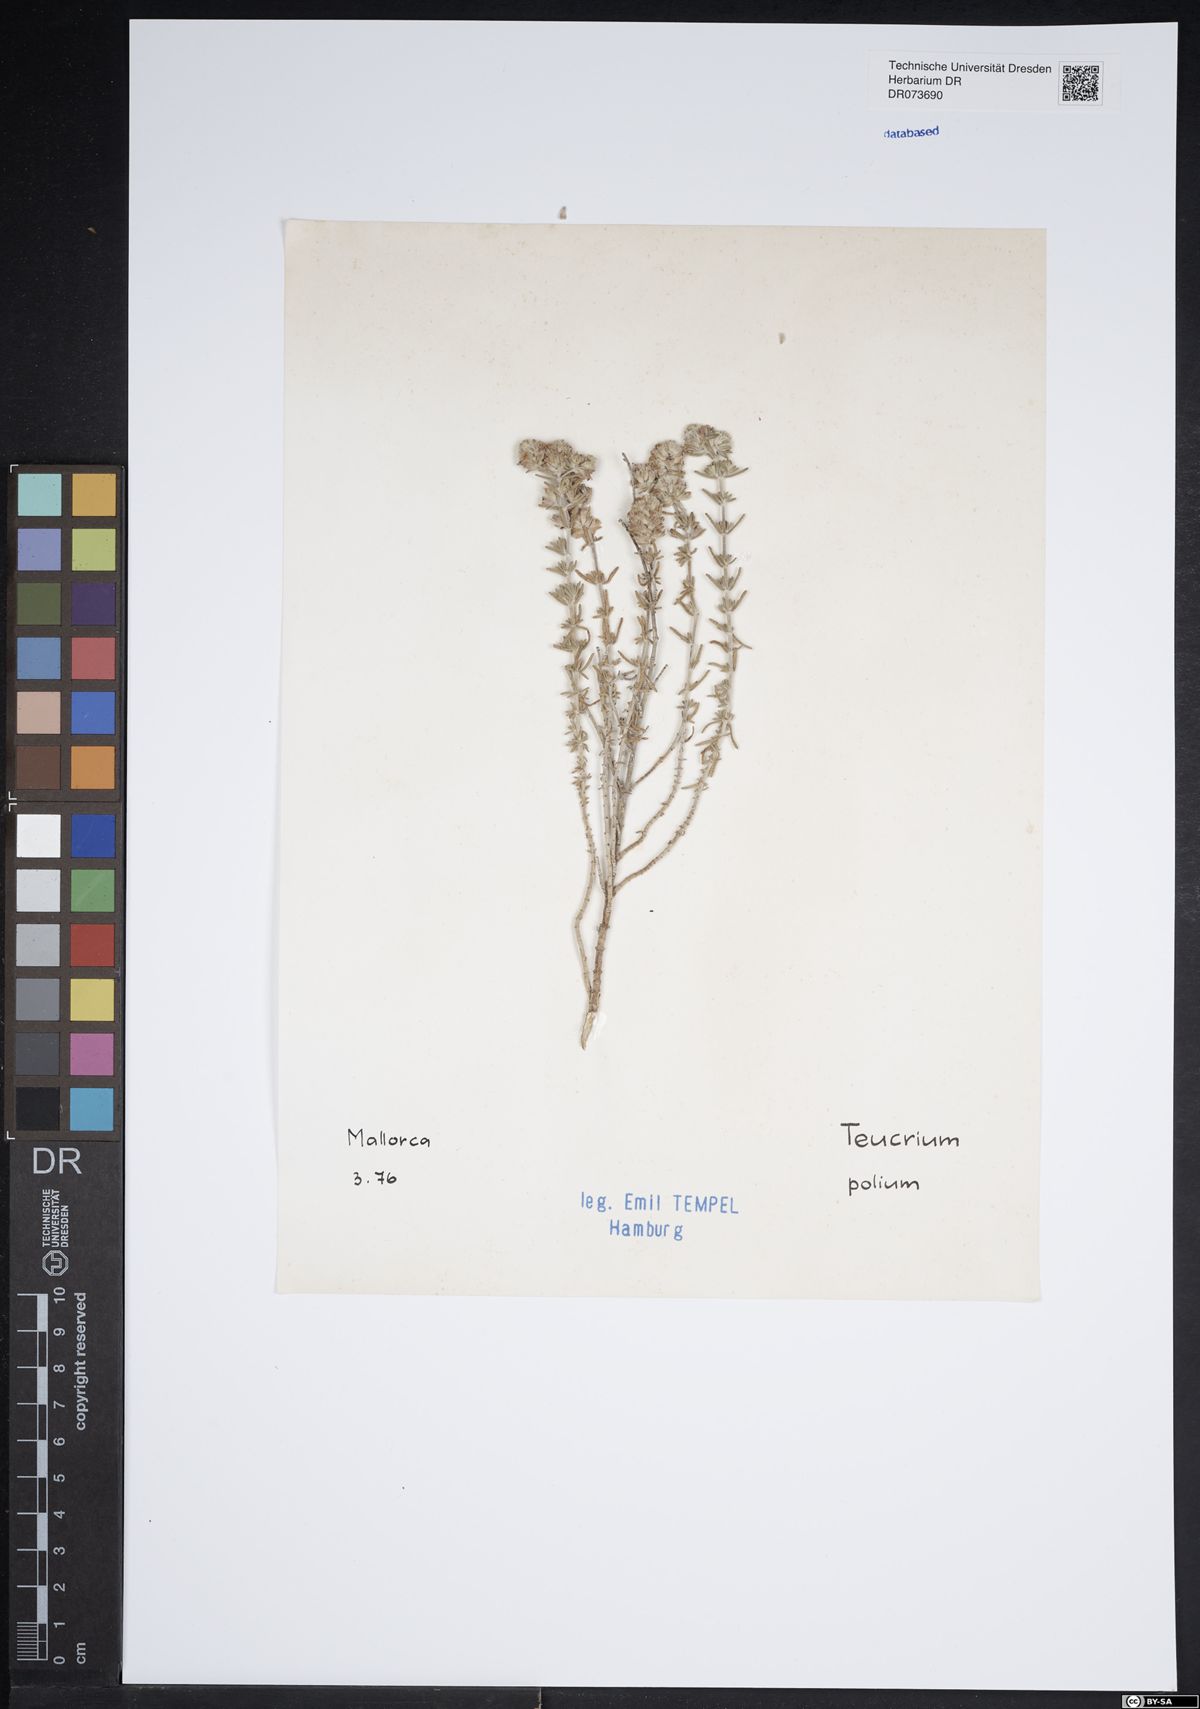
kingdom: Plantae
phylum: Tracheophyta
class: Magnoliopsida
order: Lamiales
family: Lamiaceae
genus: Teucrium
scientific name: Teucrium polium
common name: Poley
